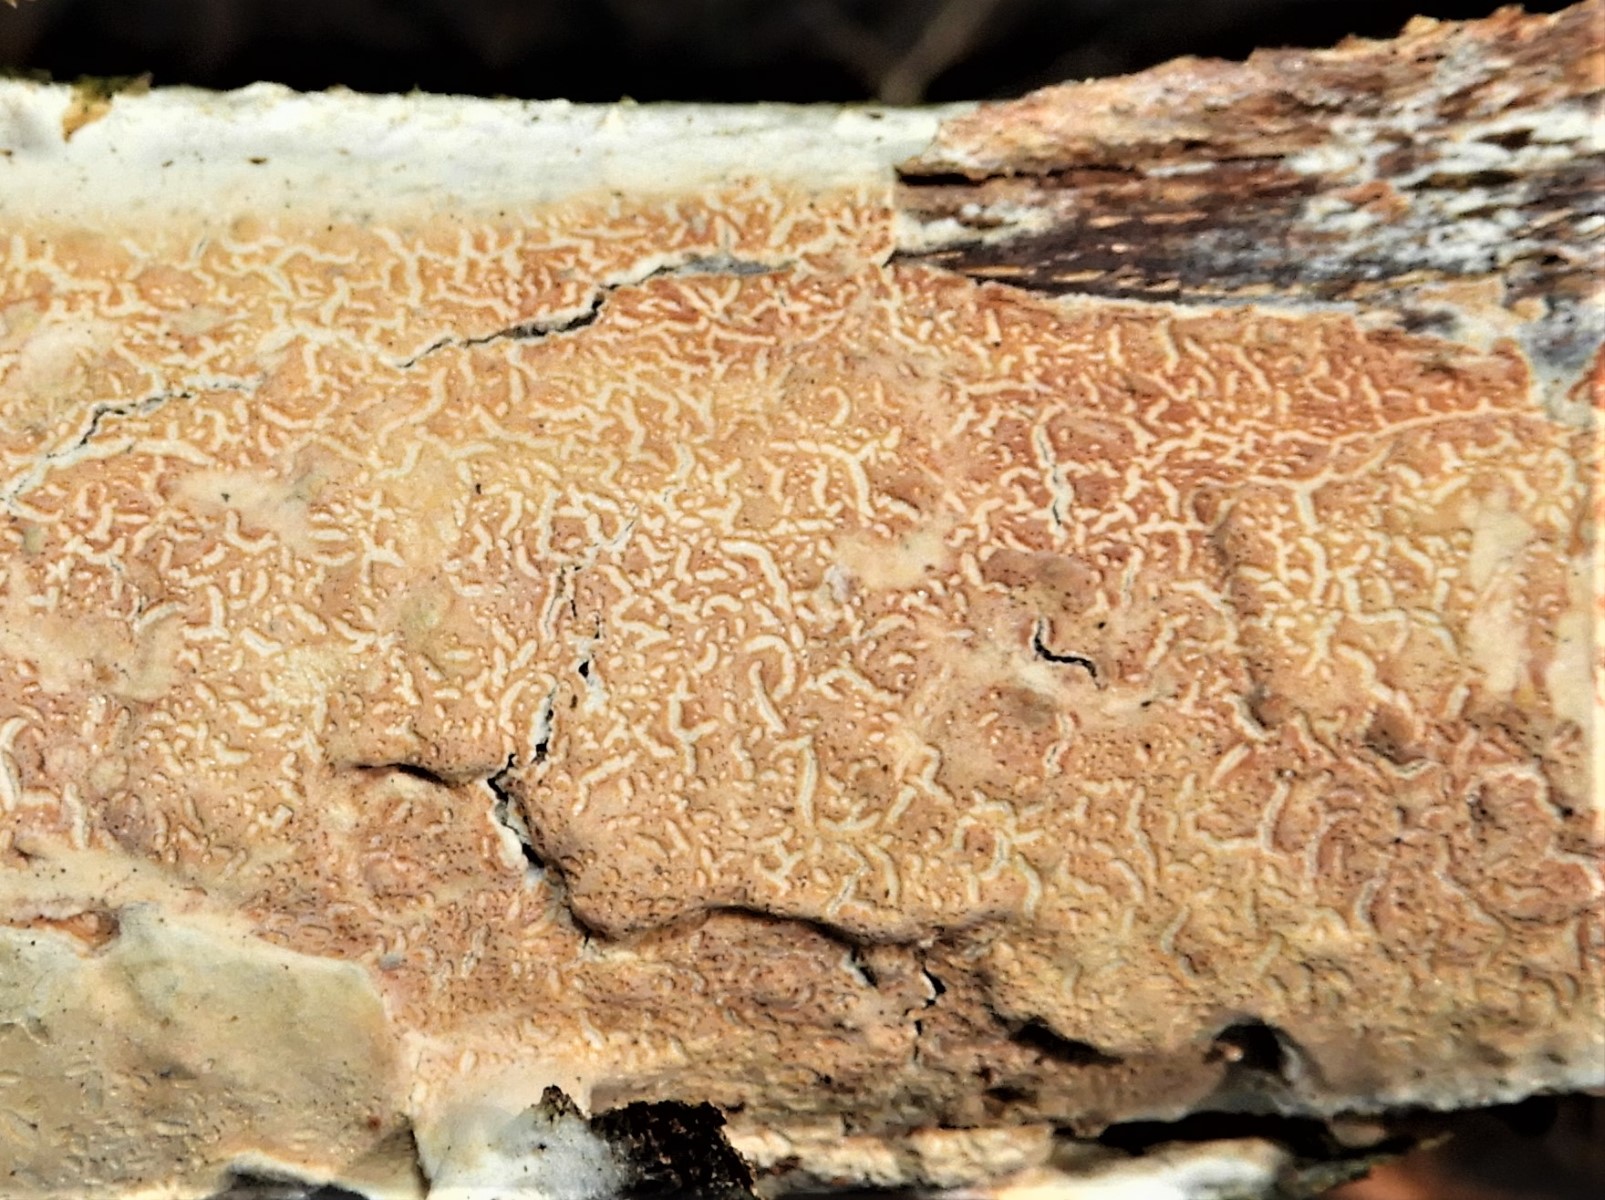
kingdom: Fungi
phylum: Basidiomycota
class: Agaricomycetes
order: Agaricales
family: Physalacriaceae
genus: Cylindrobasidium
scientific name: Cylindrobasidium evolvens
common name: sprækkehinde
